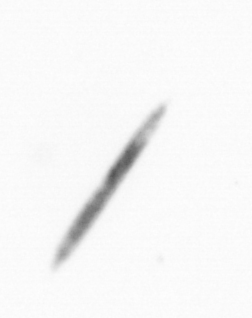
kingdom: Chromista
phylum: Ochrophyta
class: Bacillariophyceae
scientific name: Bacillariophyceae
